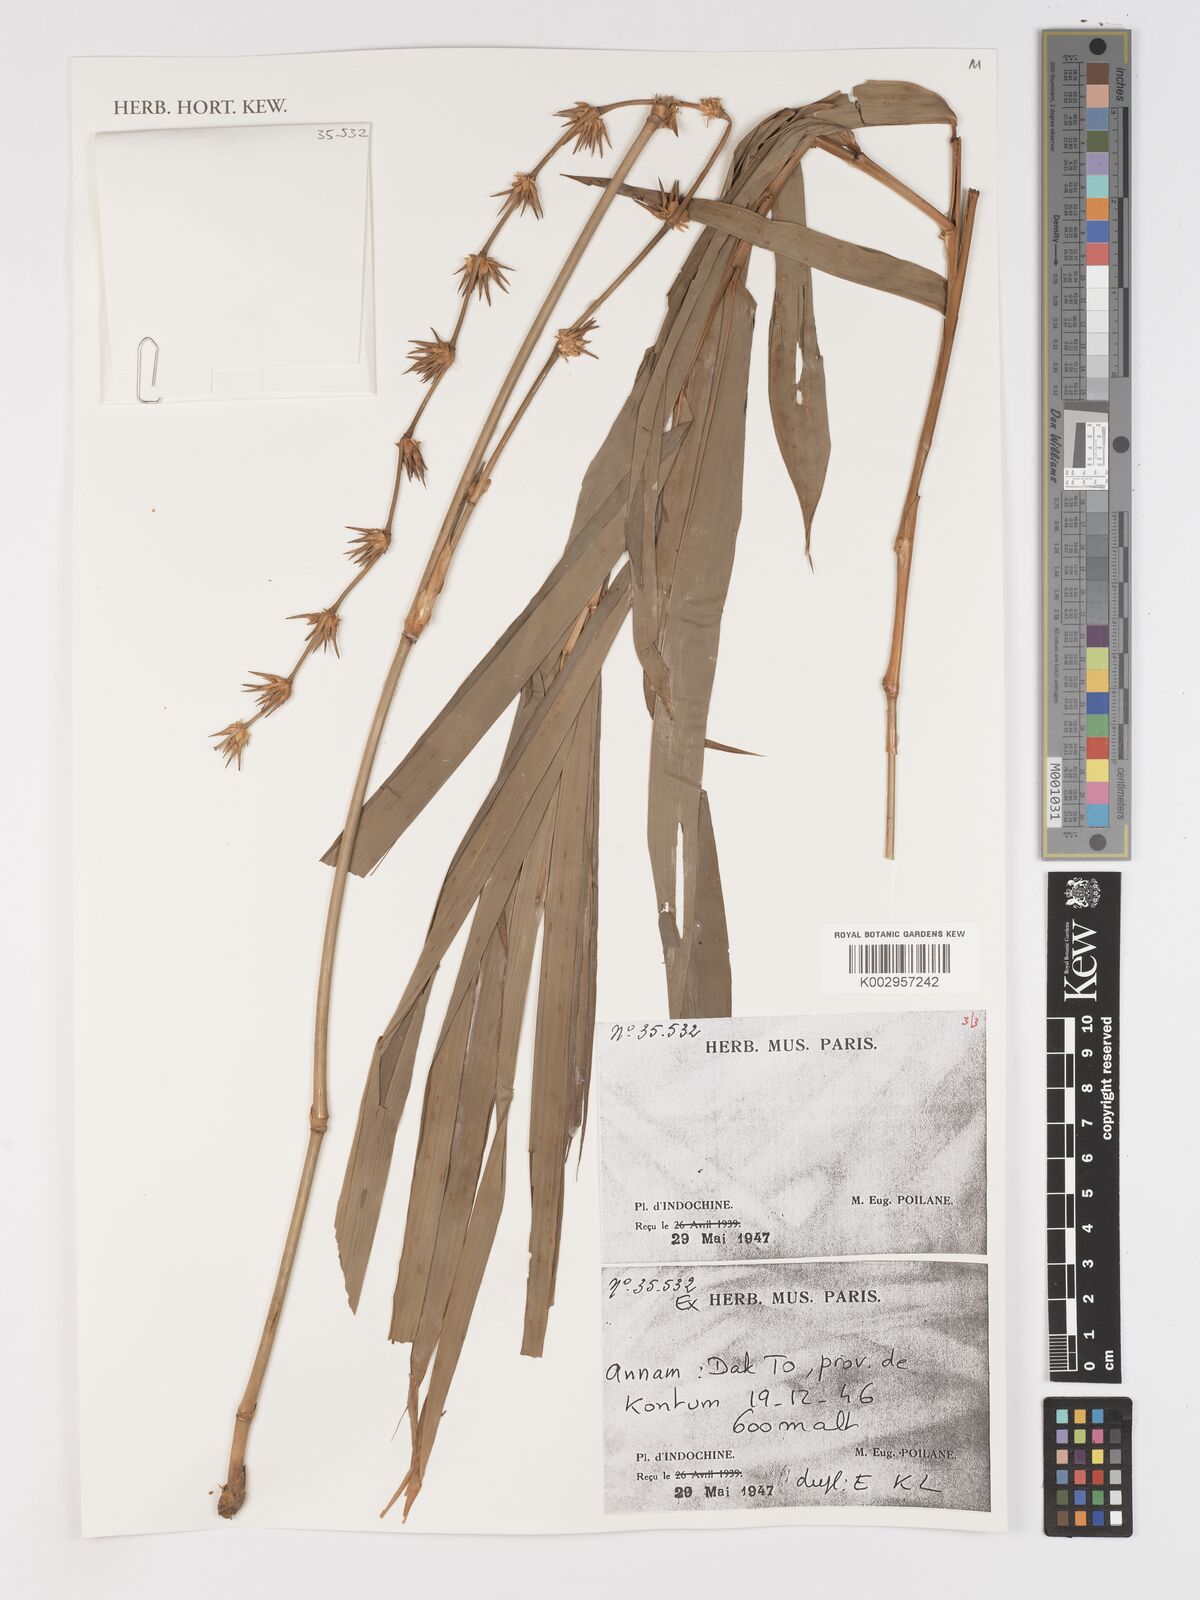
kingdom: Plantae
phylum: Tracheophyta
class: Liliopsida
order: Poales
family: Poaceae
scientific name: Poaceae
